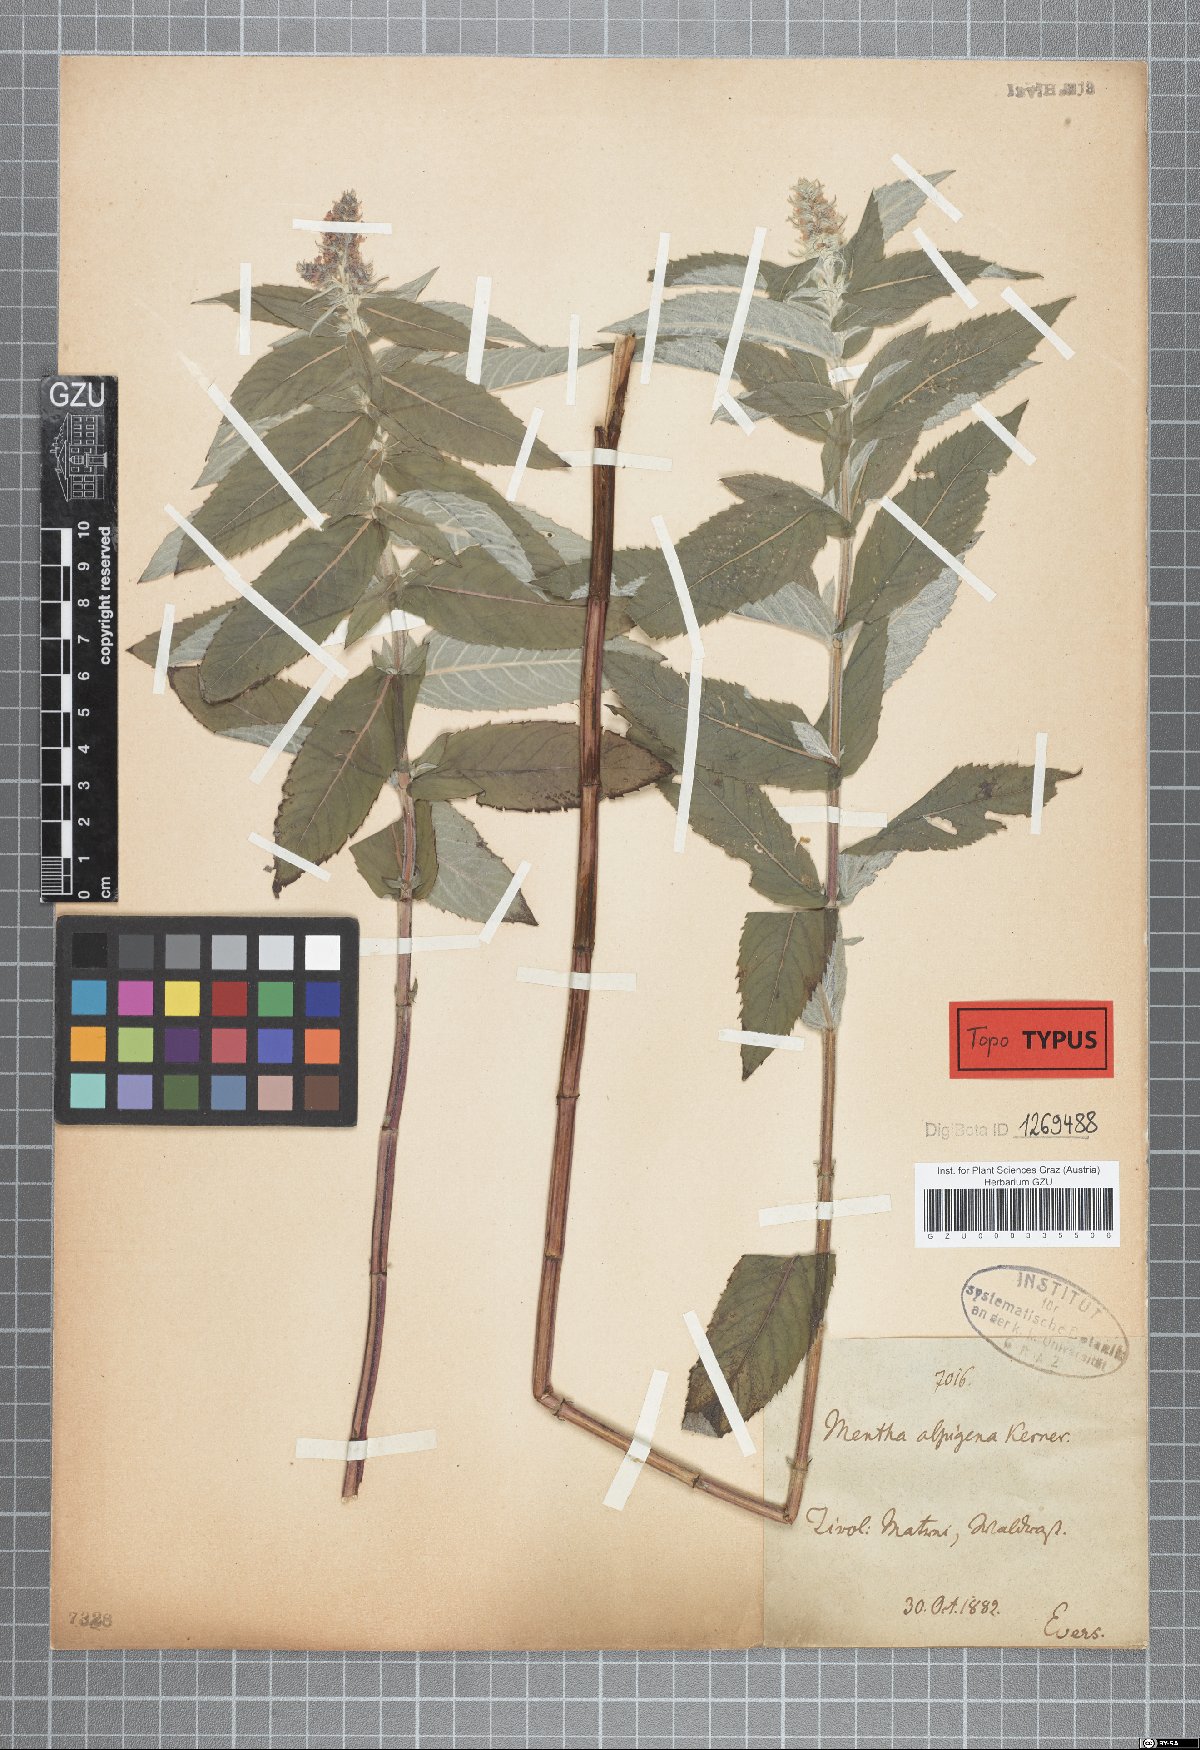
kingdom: Plantae
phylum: Tracheophyta
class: Magnoliopsida
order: Lamiales
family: Lamiaceae
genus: Mentha
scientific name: Mentha longifolia
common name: Horse mint
